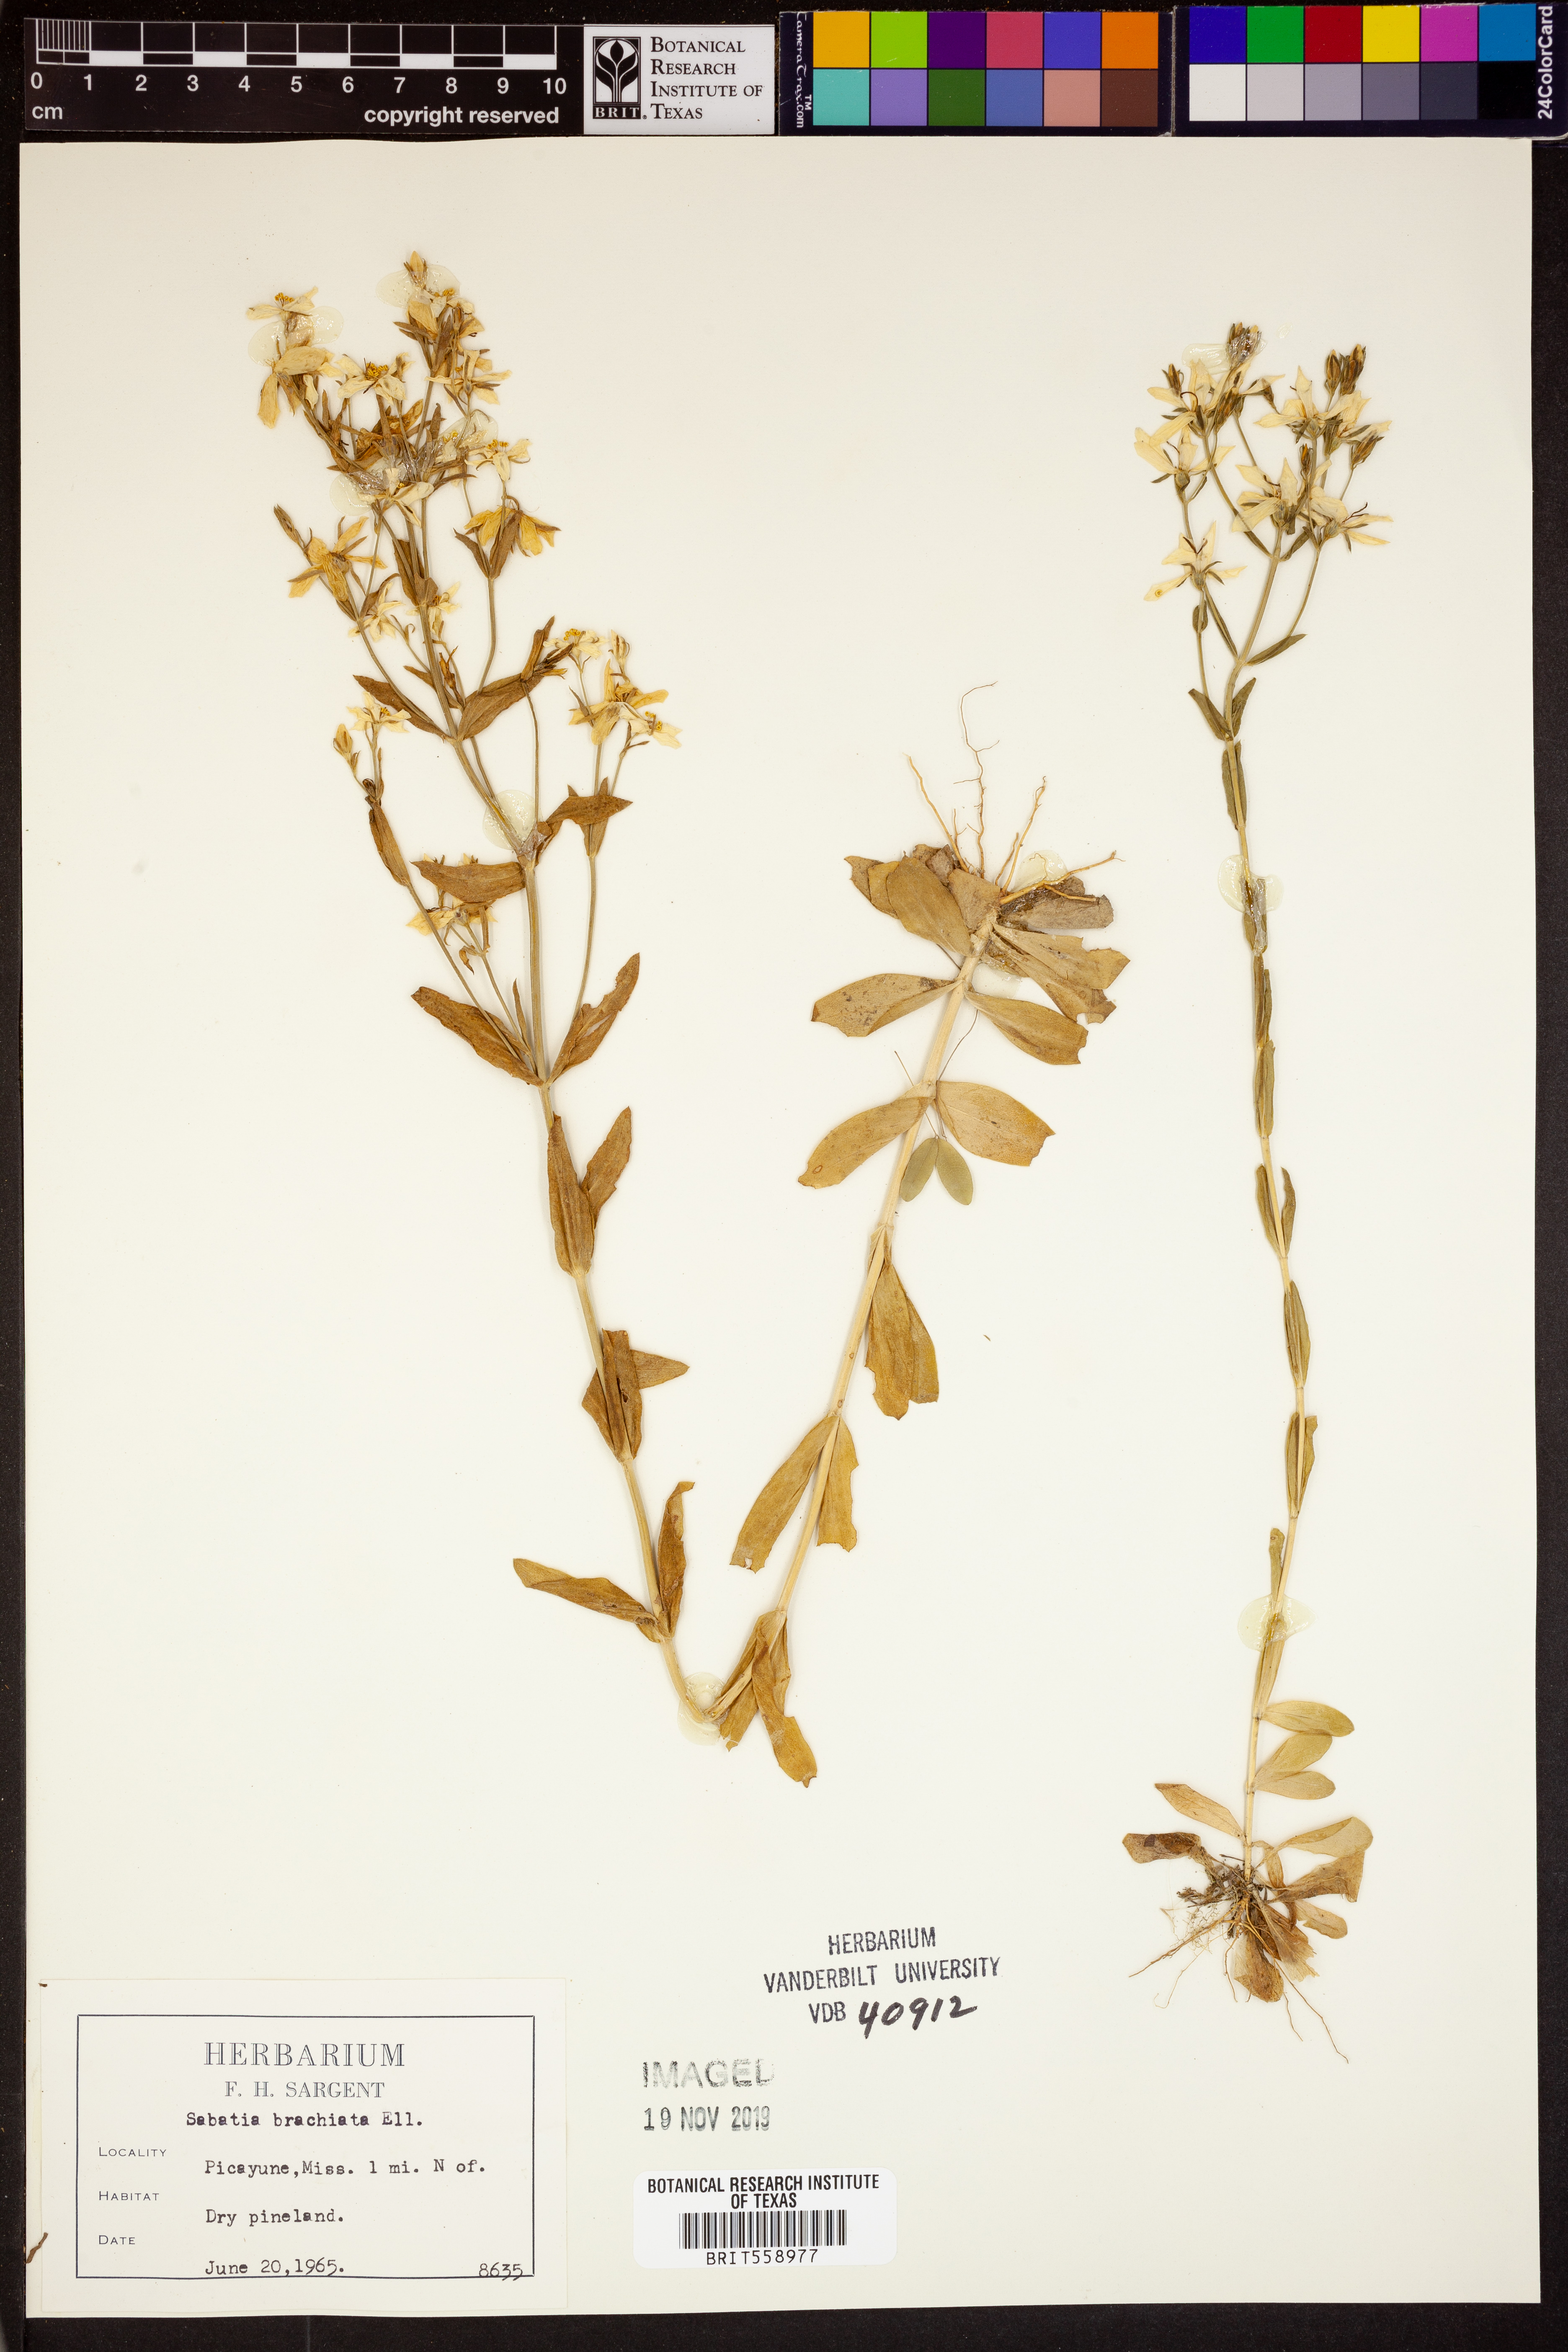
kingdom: Plantae
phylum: Tracheophyta
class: Magnoliopsida
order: Gentianales
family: Gentianaceae
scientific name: Gentianaceae
